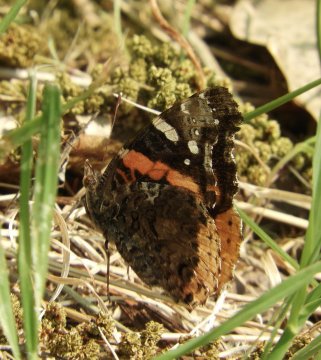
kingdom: Animalia
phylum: Arthropoda
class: Insecta
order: Lepidoptera
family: Nymphalidae
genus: Vanessa
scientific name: Vanessa atalanta
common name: Red Admiral
